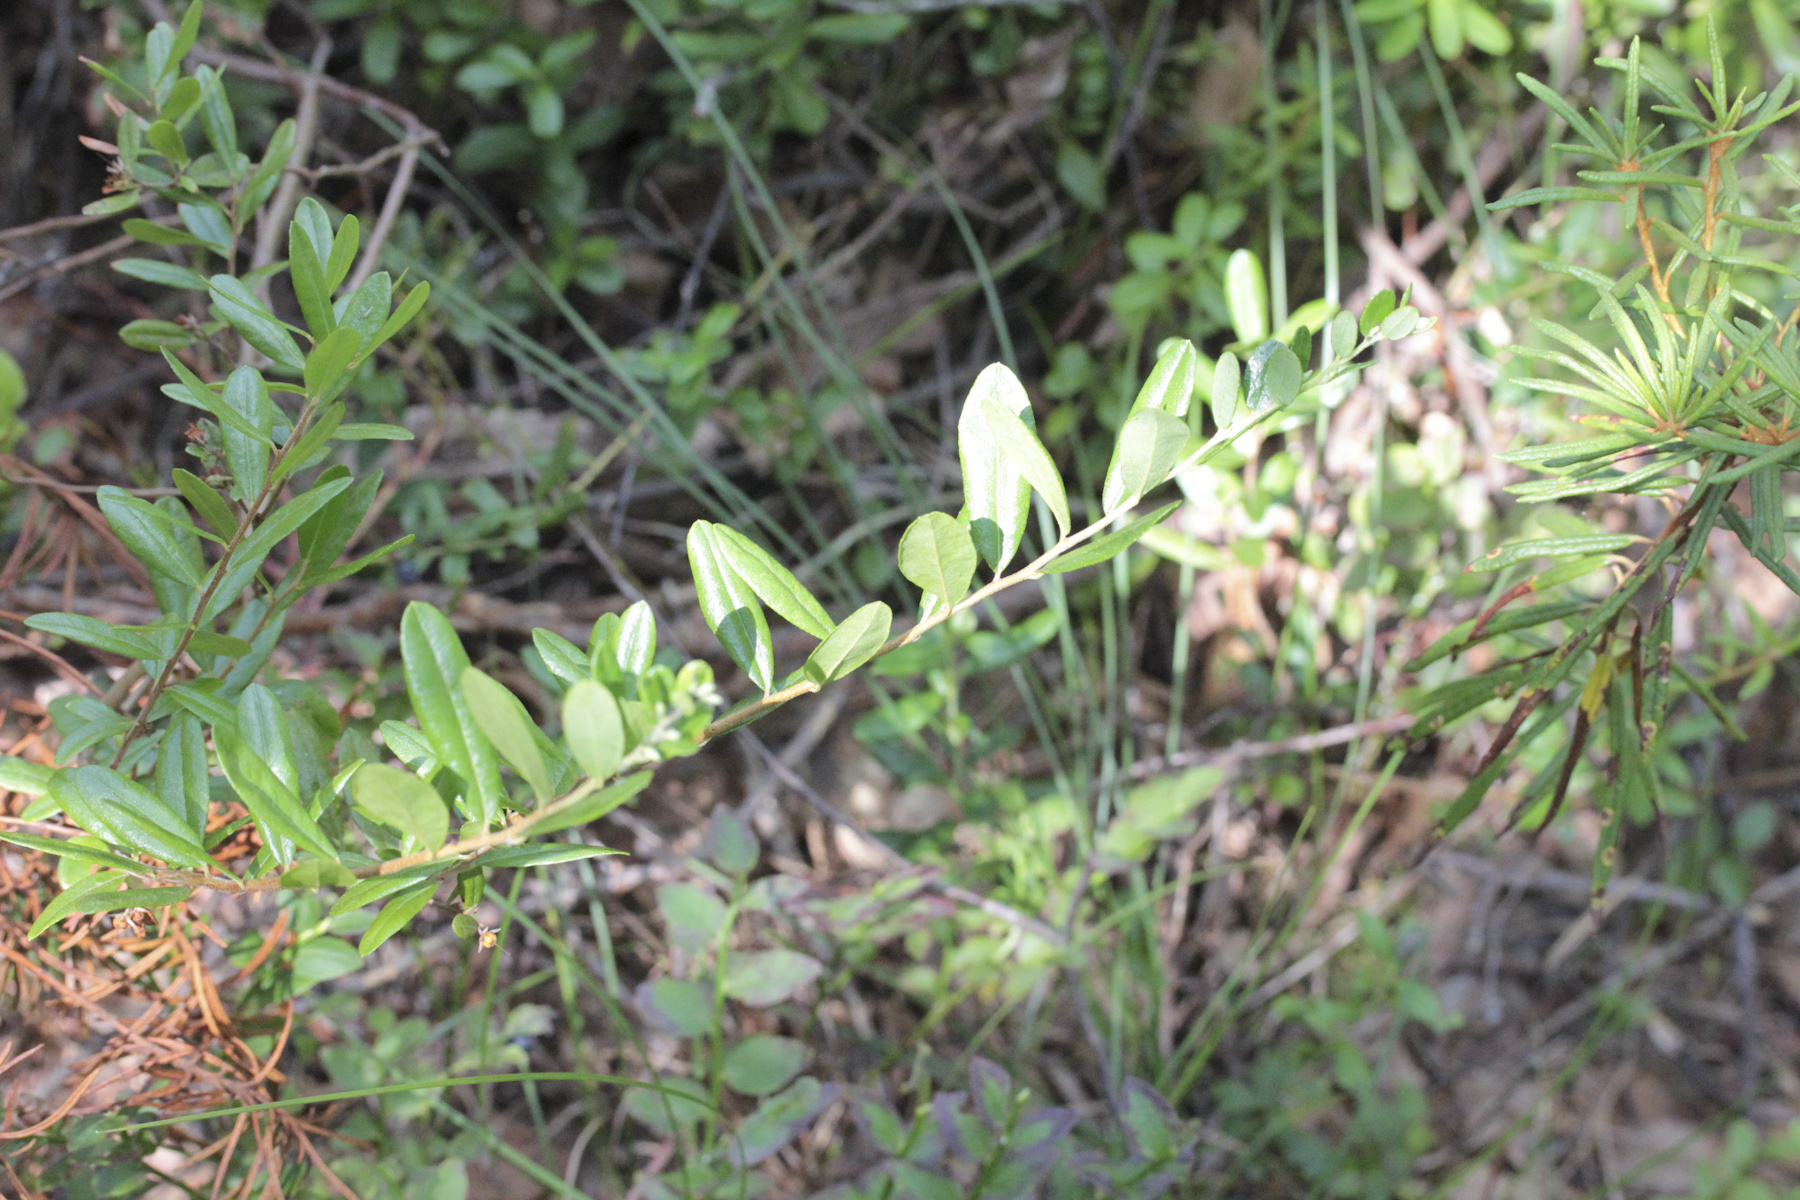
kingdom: Plantae
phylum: Tracheophyta
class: Magnoliopsida
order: Ericales
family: Ericaceae
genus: Chamaedaphne
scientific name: Chamaedaphne calyculata
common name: Leatherleaf
